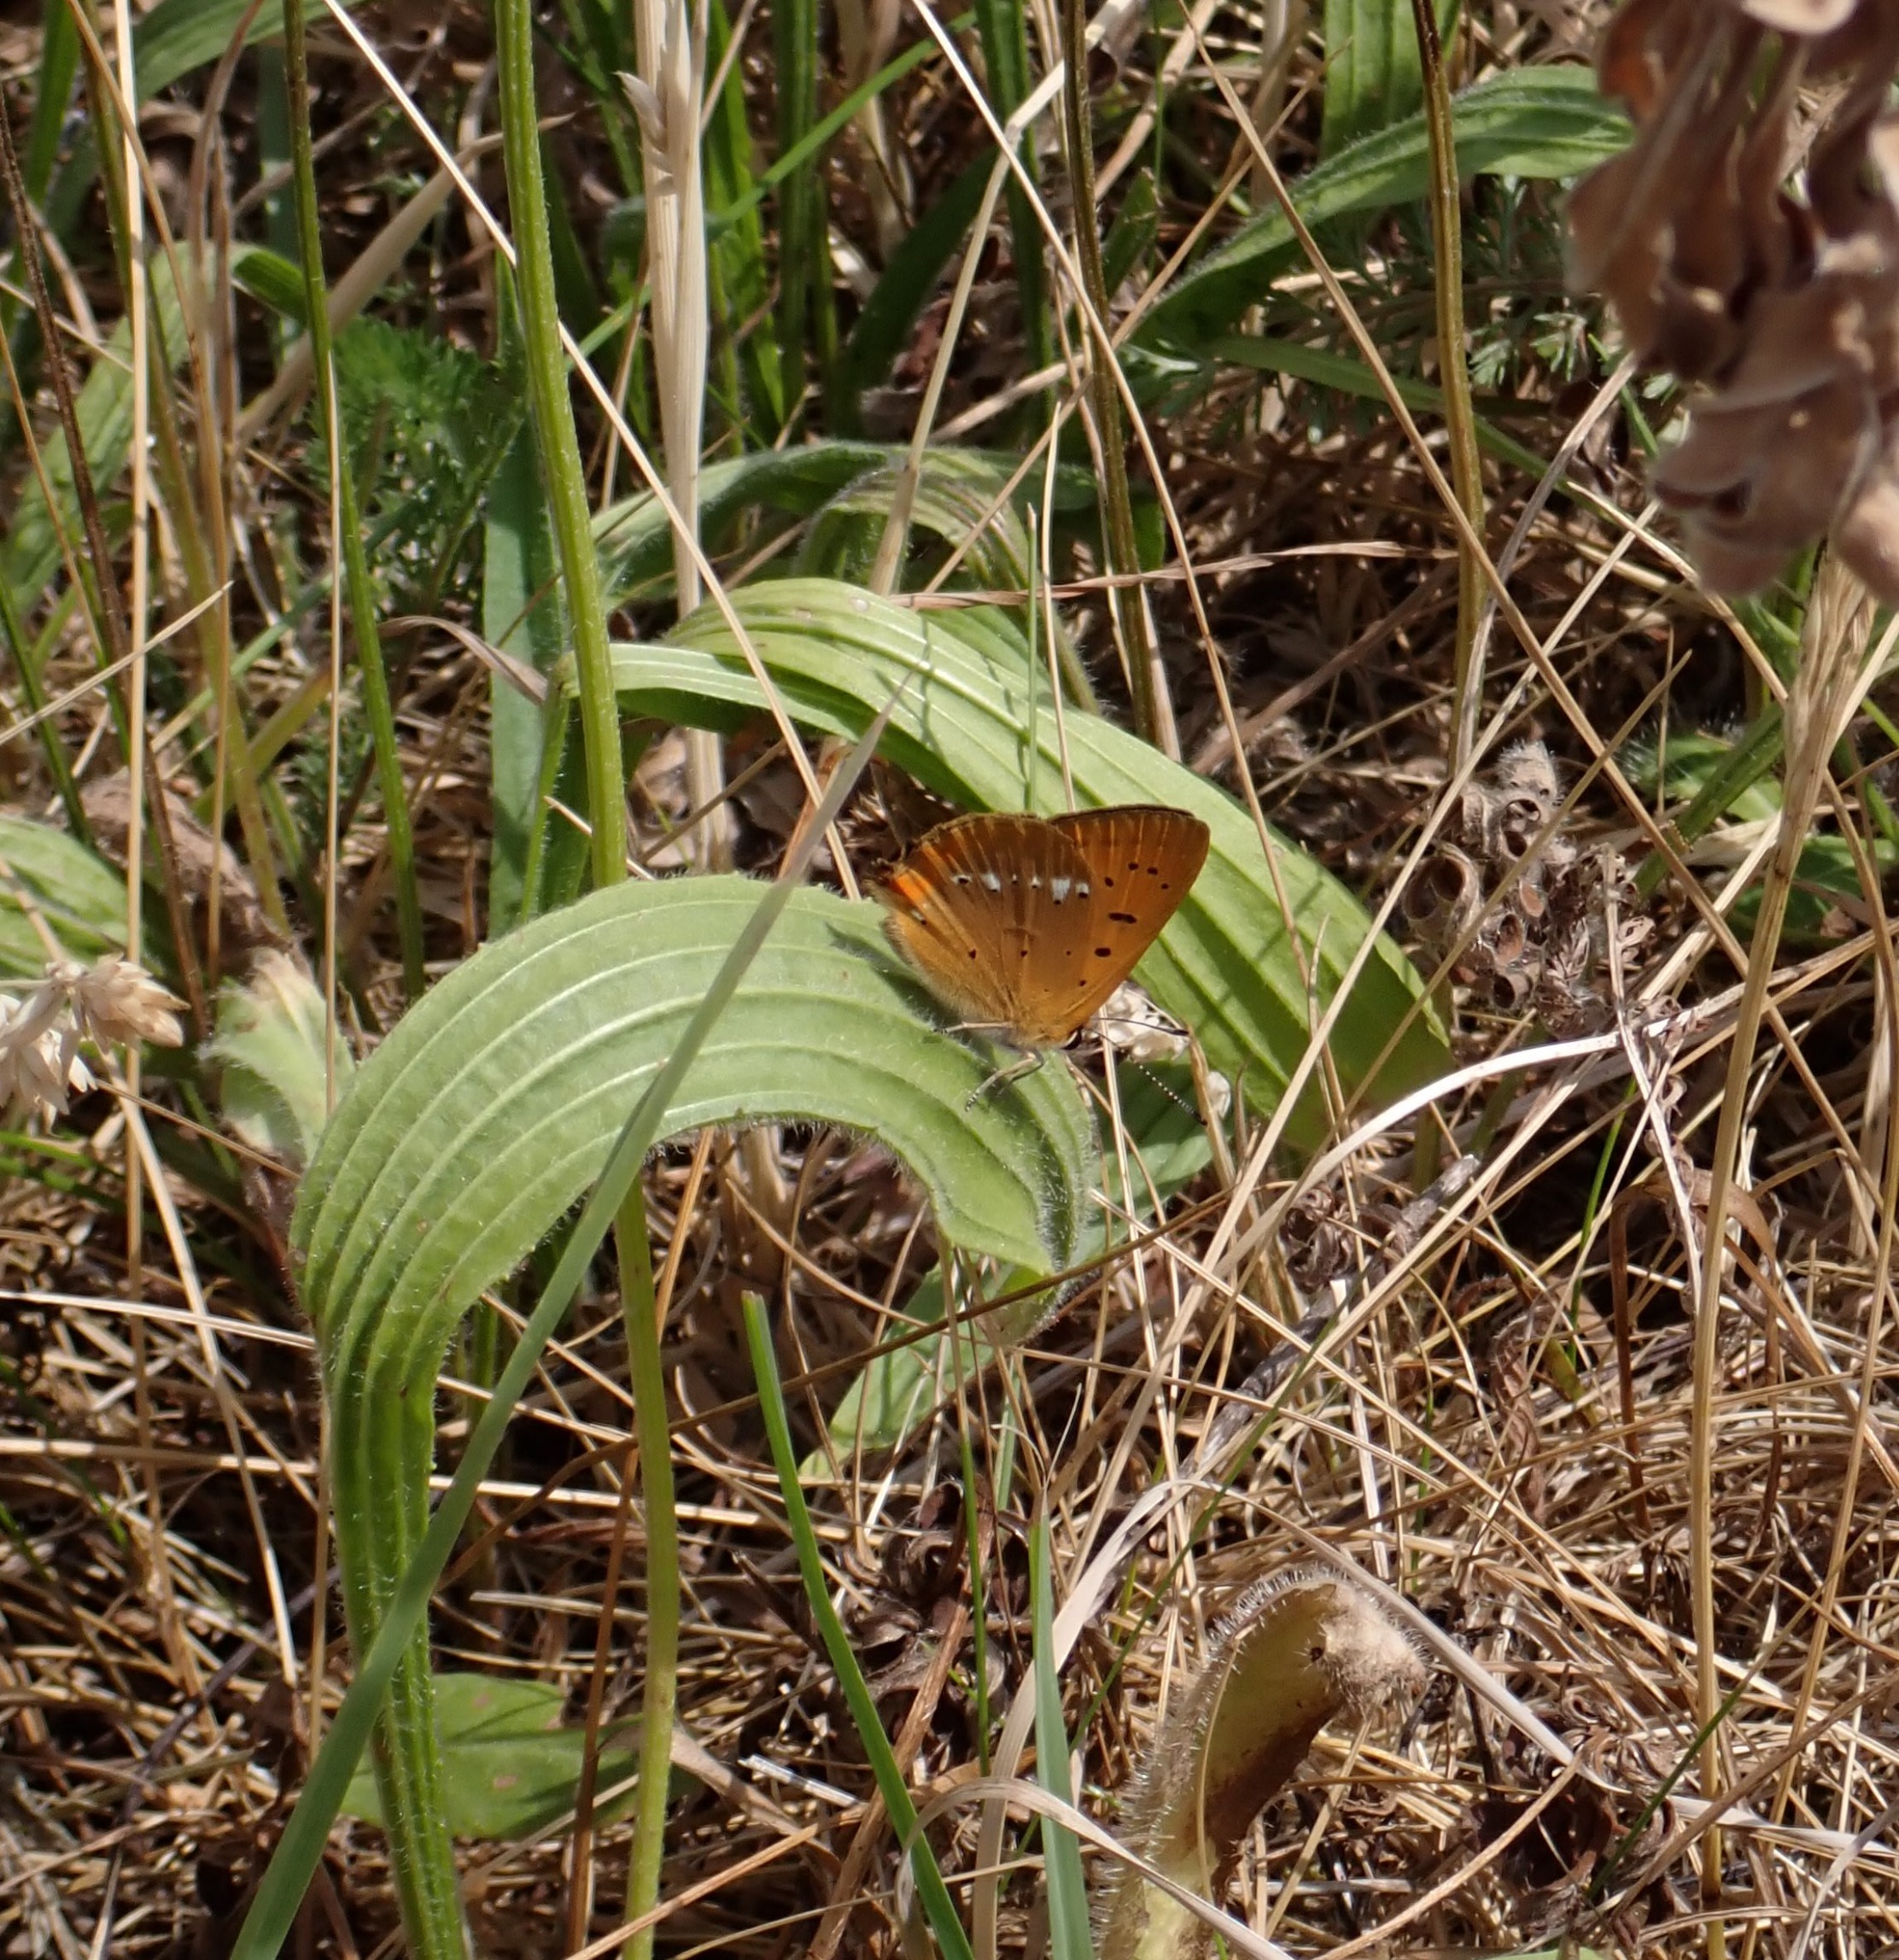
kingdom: Animalia
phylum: Arthropoda
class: Insecta
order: Lepidoptera
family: Lycaenidae
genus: Lycaena
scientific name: Lycaena virgaureae
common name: Dukatsommerfugl
